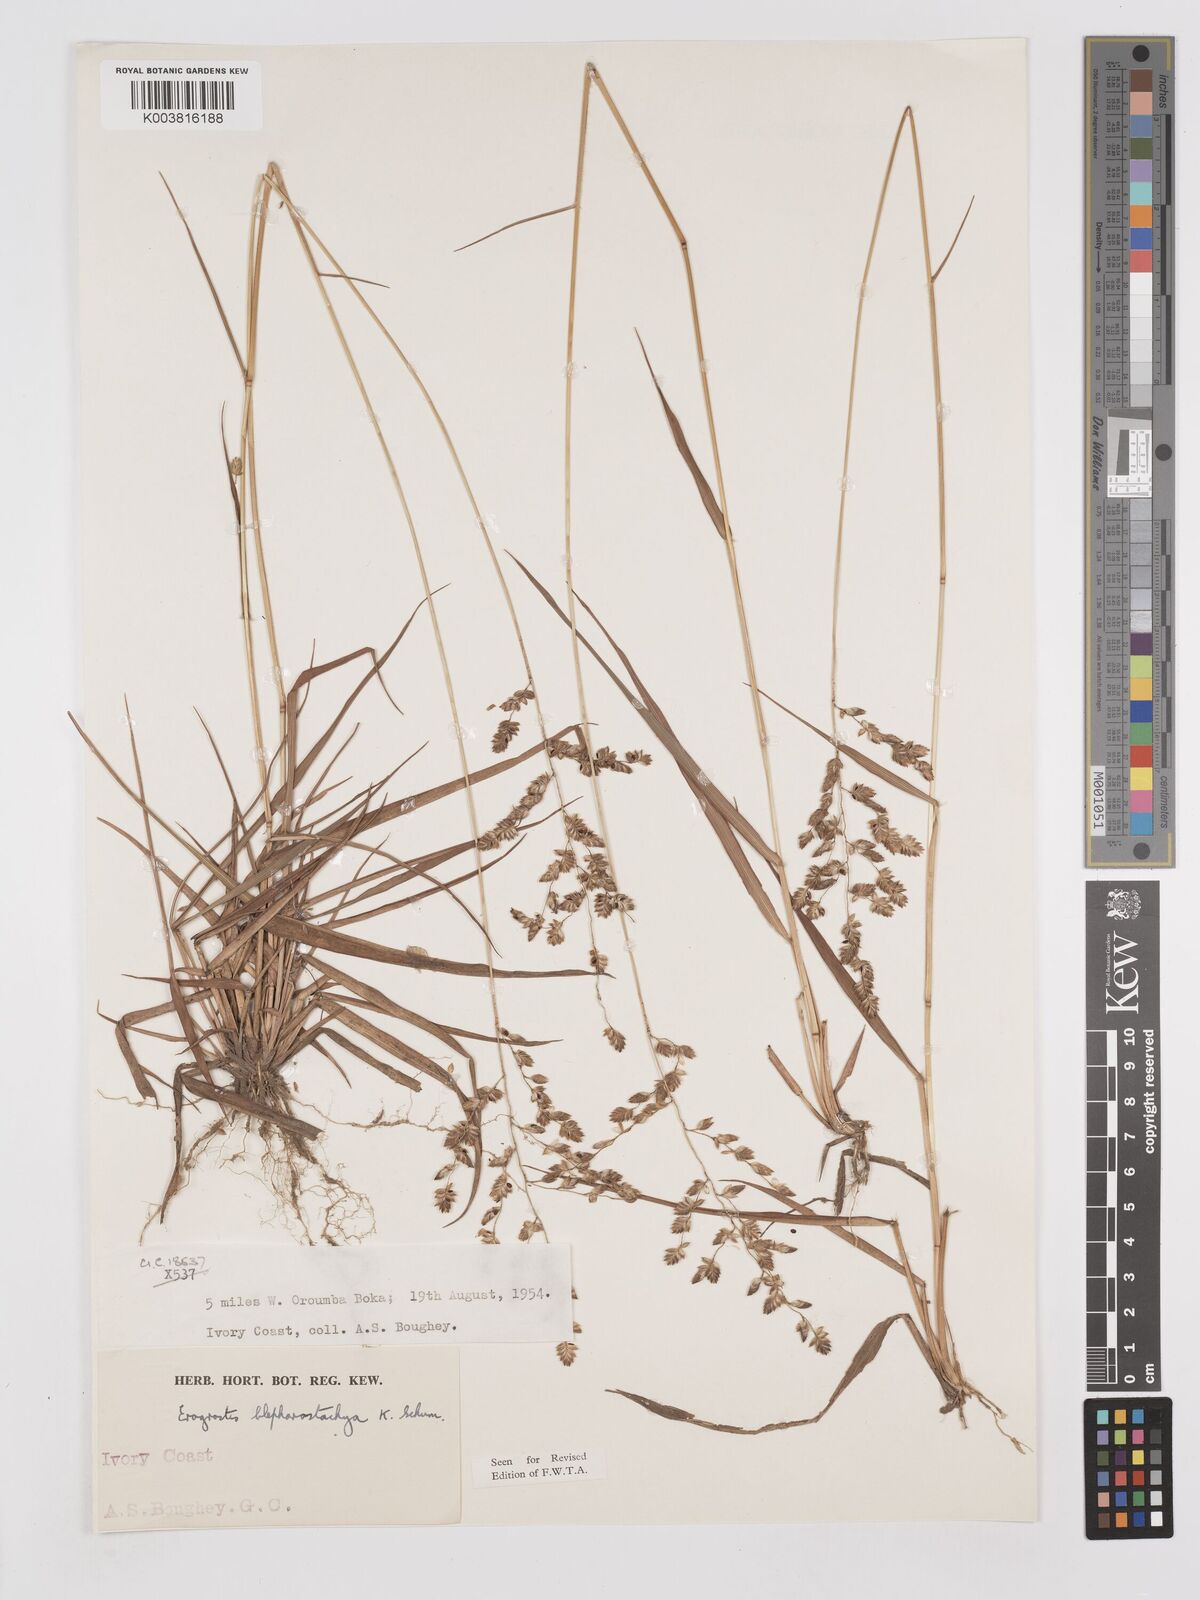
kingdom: Plantae
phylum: Tracheophyta
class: Liliopsida
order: Poales
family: Poaceae
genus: Eragrostis
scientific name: Eragrostis blepharostachya
